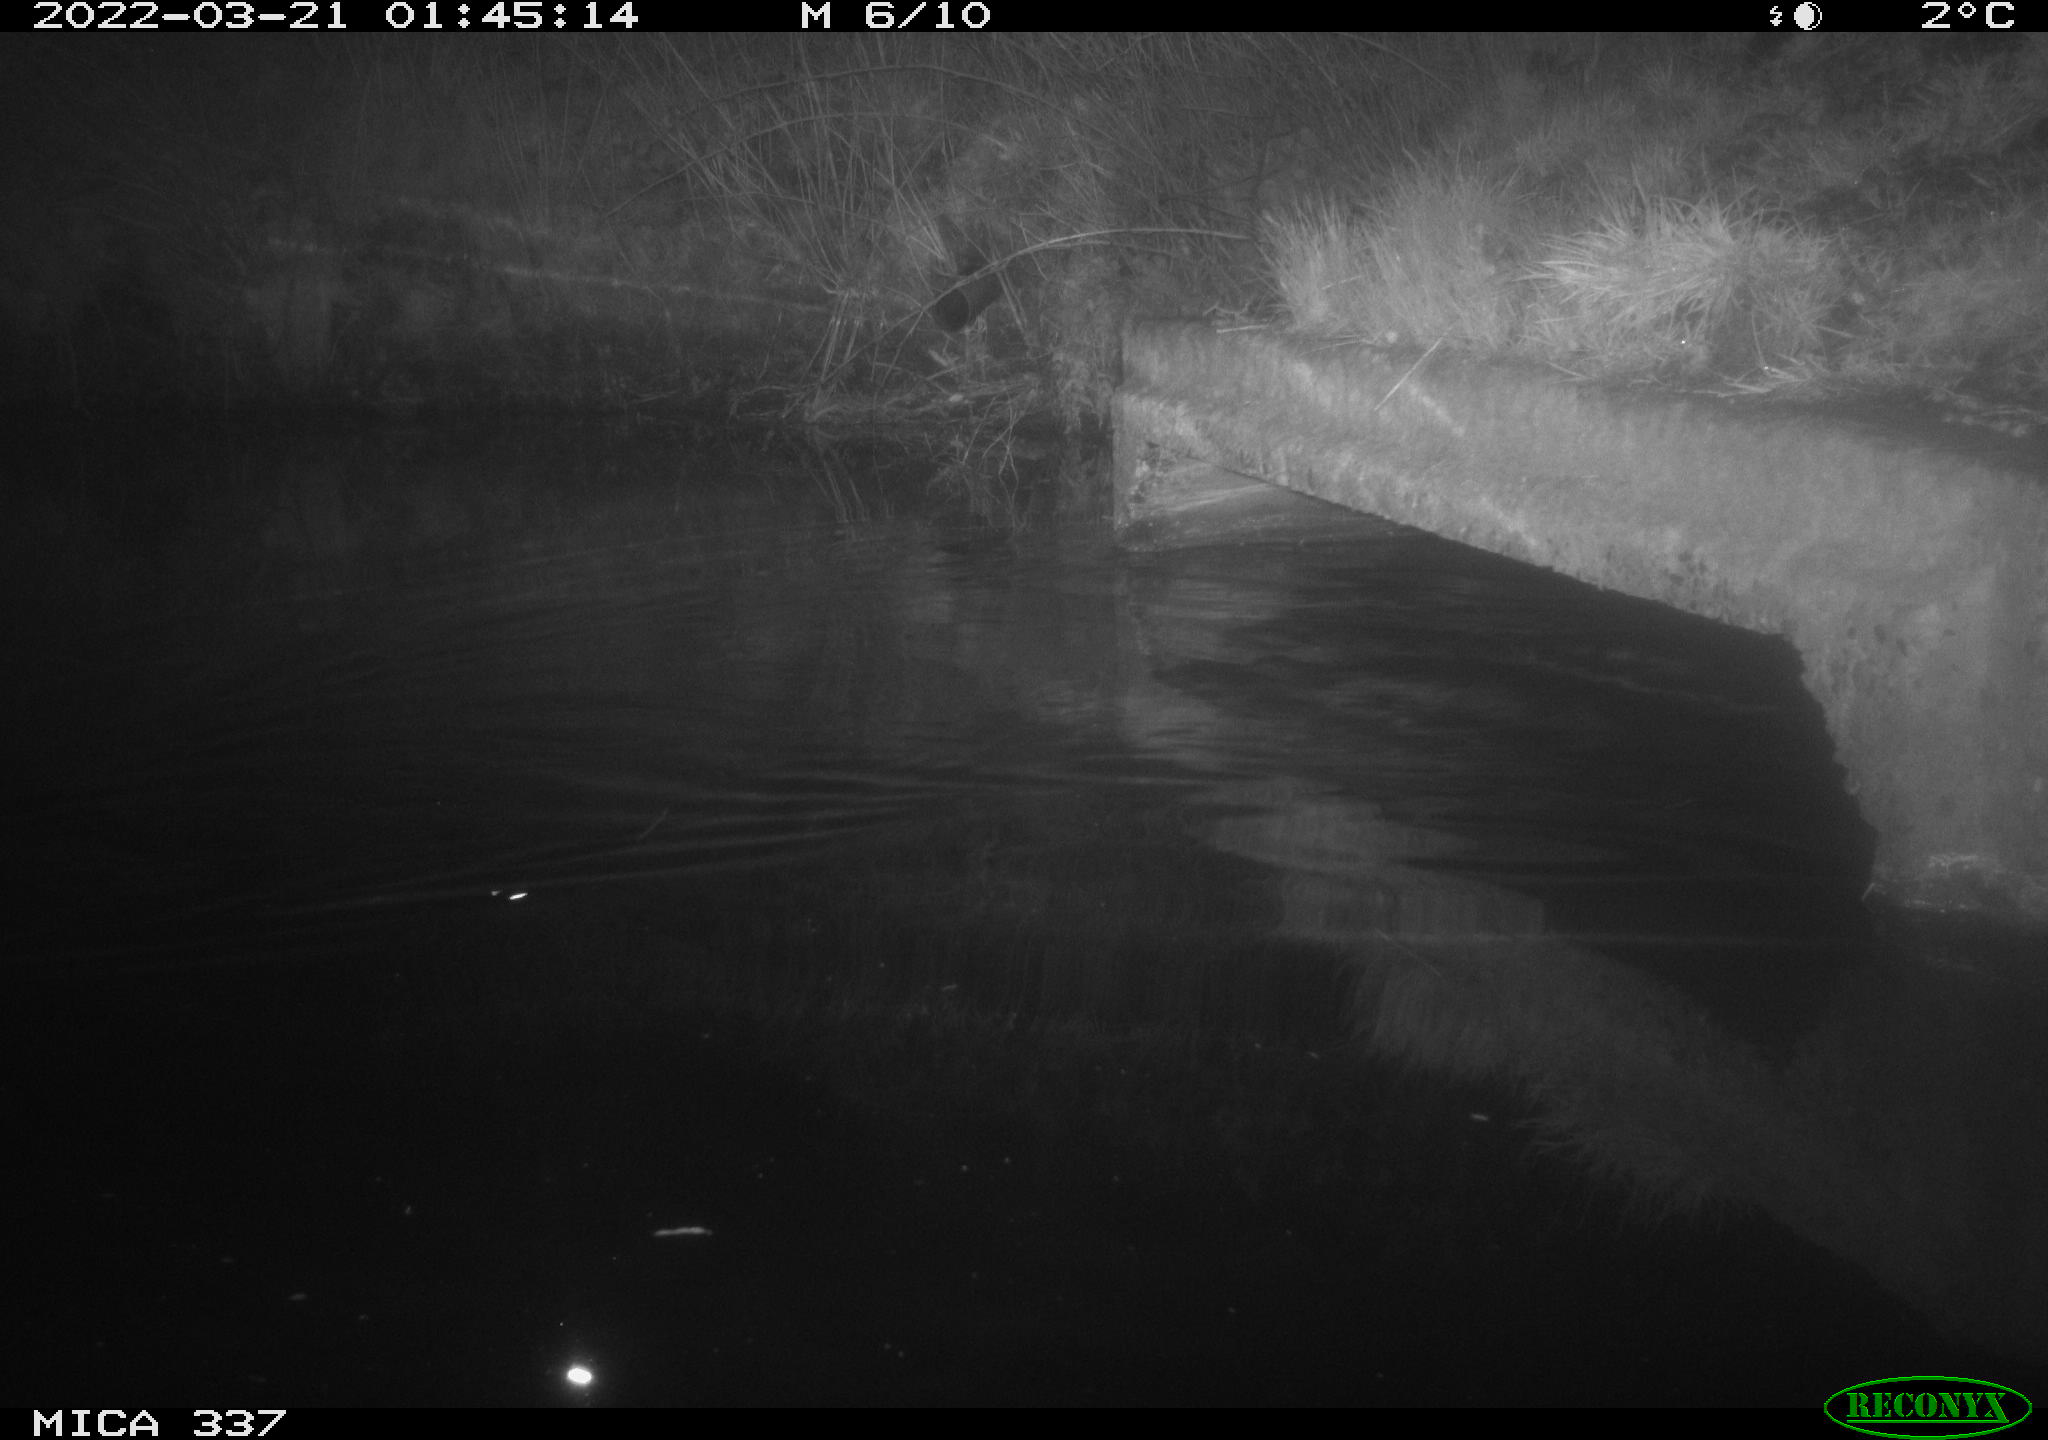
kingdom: Animalia
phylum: Chordata
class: Aves
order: Anseriformes
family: Anatidae
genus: Anas
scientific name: Anas platyrhynchos
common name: Mallard
